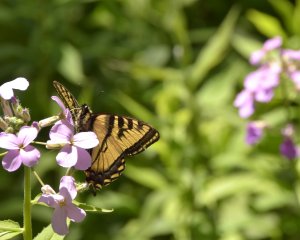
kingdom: Animalia
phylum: Arthropoda
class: Insecta
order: Lepidoptera
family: Papilionidae
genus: Pterourus
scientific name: Pterourus canadensis
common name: Canadian Tiger Swallowtail
